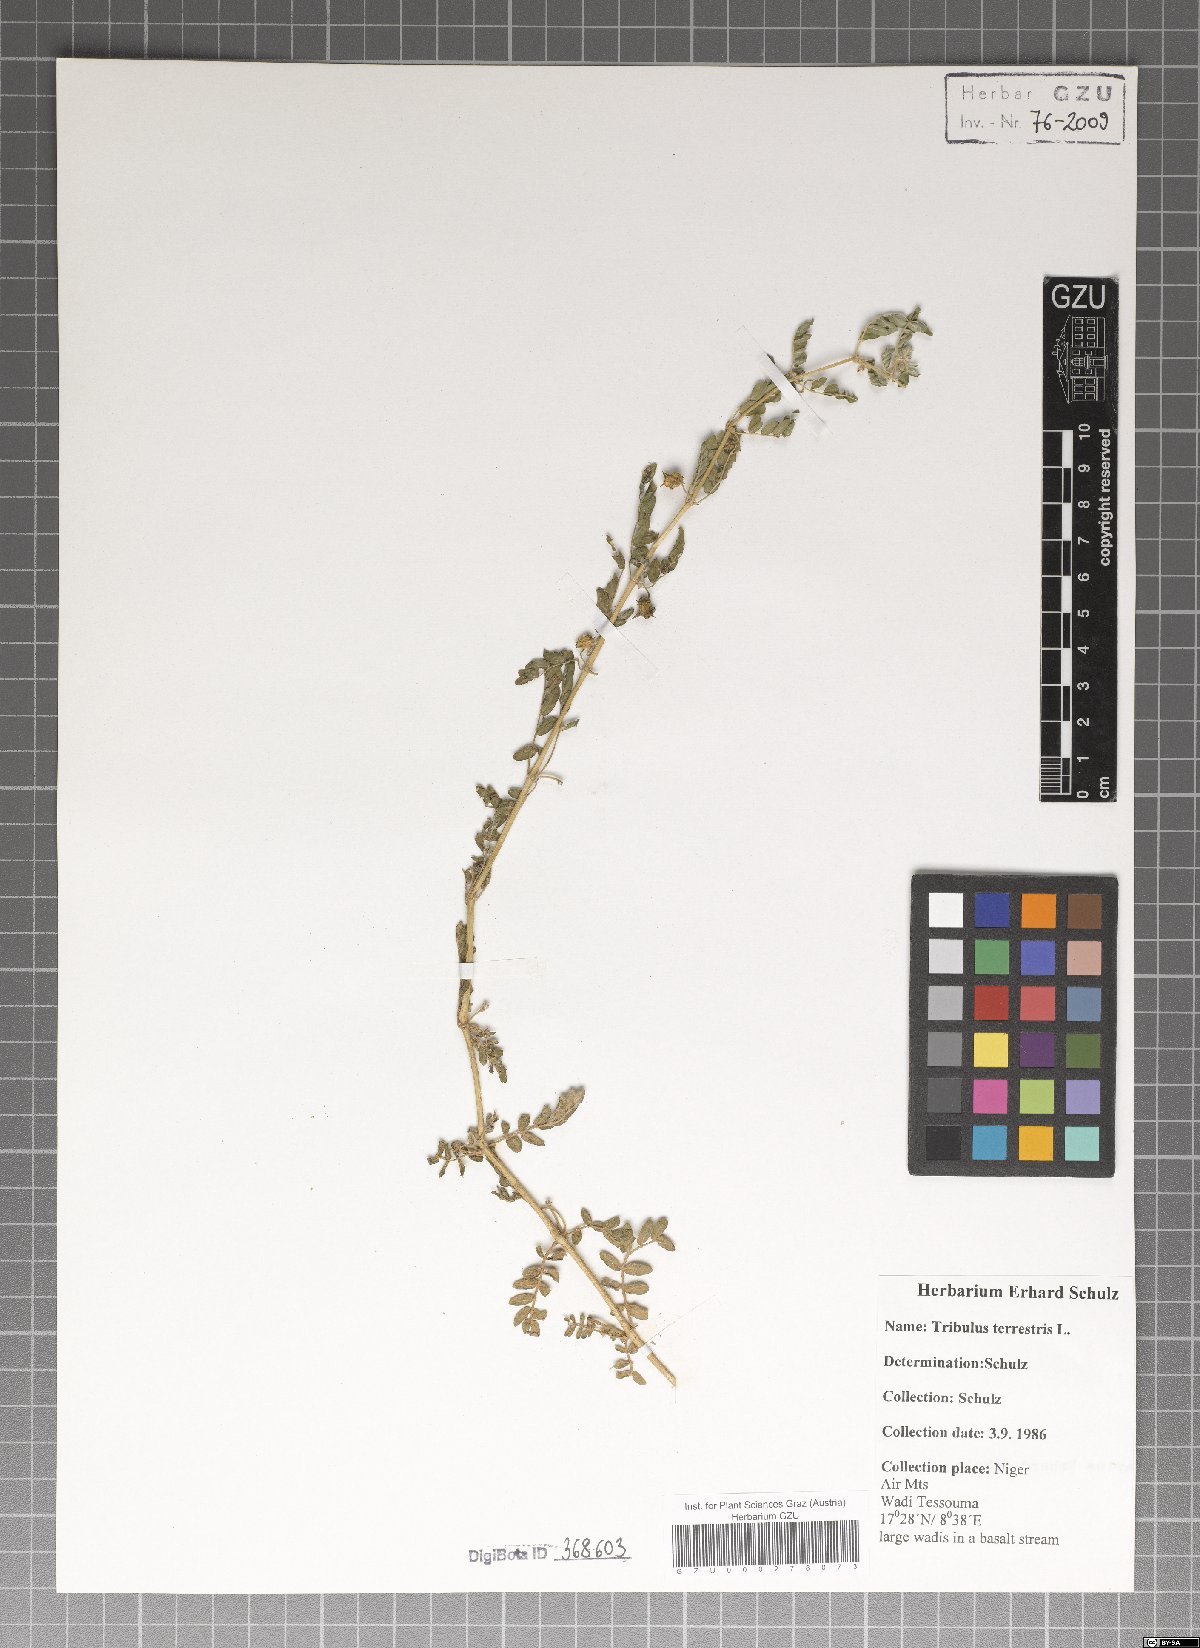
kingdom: Plantae
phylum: Tracheophyta
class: Magnoliopsida
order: Zygophyllales
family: Zygophyllaceae
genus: Tribulus
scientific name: Tribulus terrestris
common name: Puncturevine
